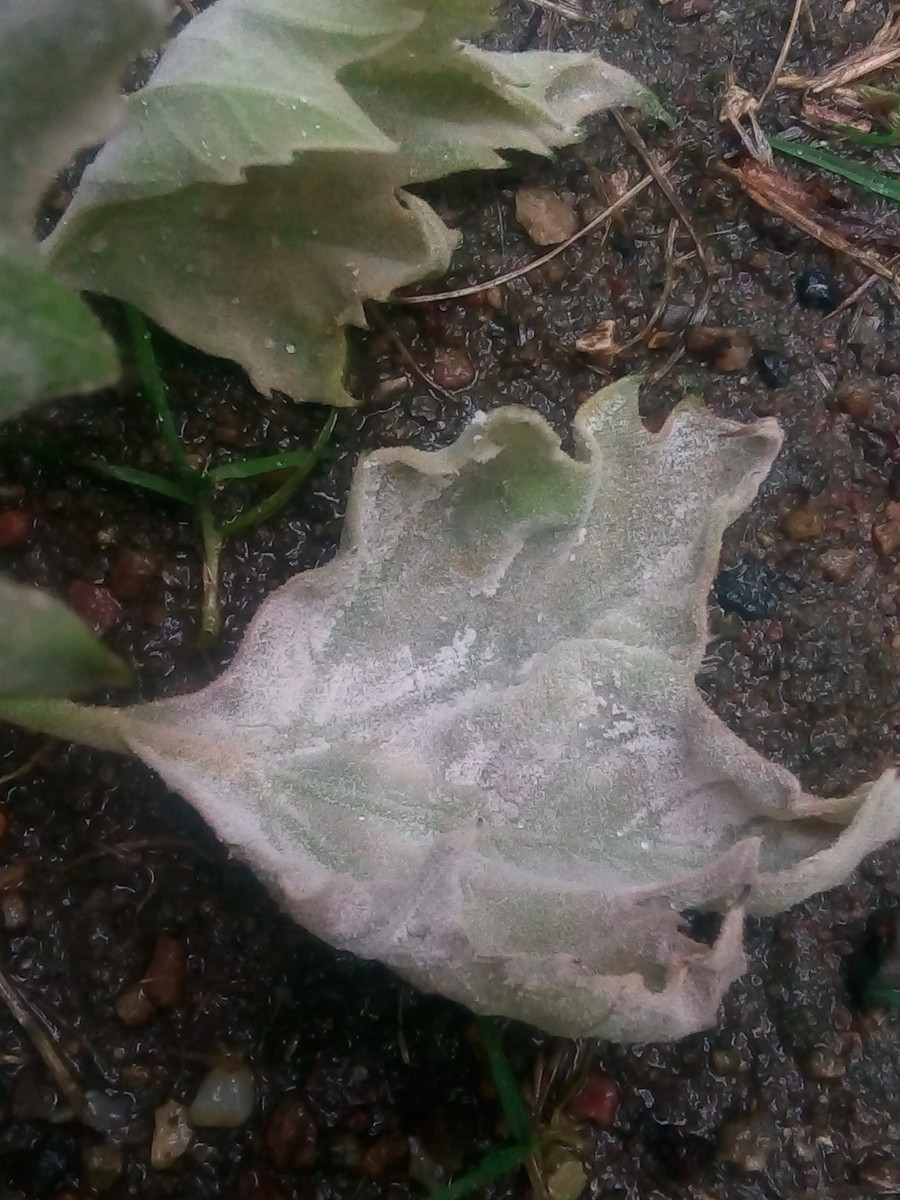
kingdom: Fungi
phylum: Ascomycota
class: Leotiomycetes
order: Helotiales
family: Erysiphaceae
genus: Erysiphe
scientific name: Erysiphe platani
